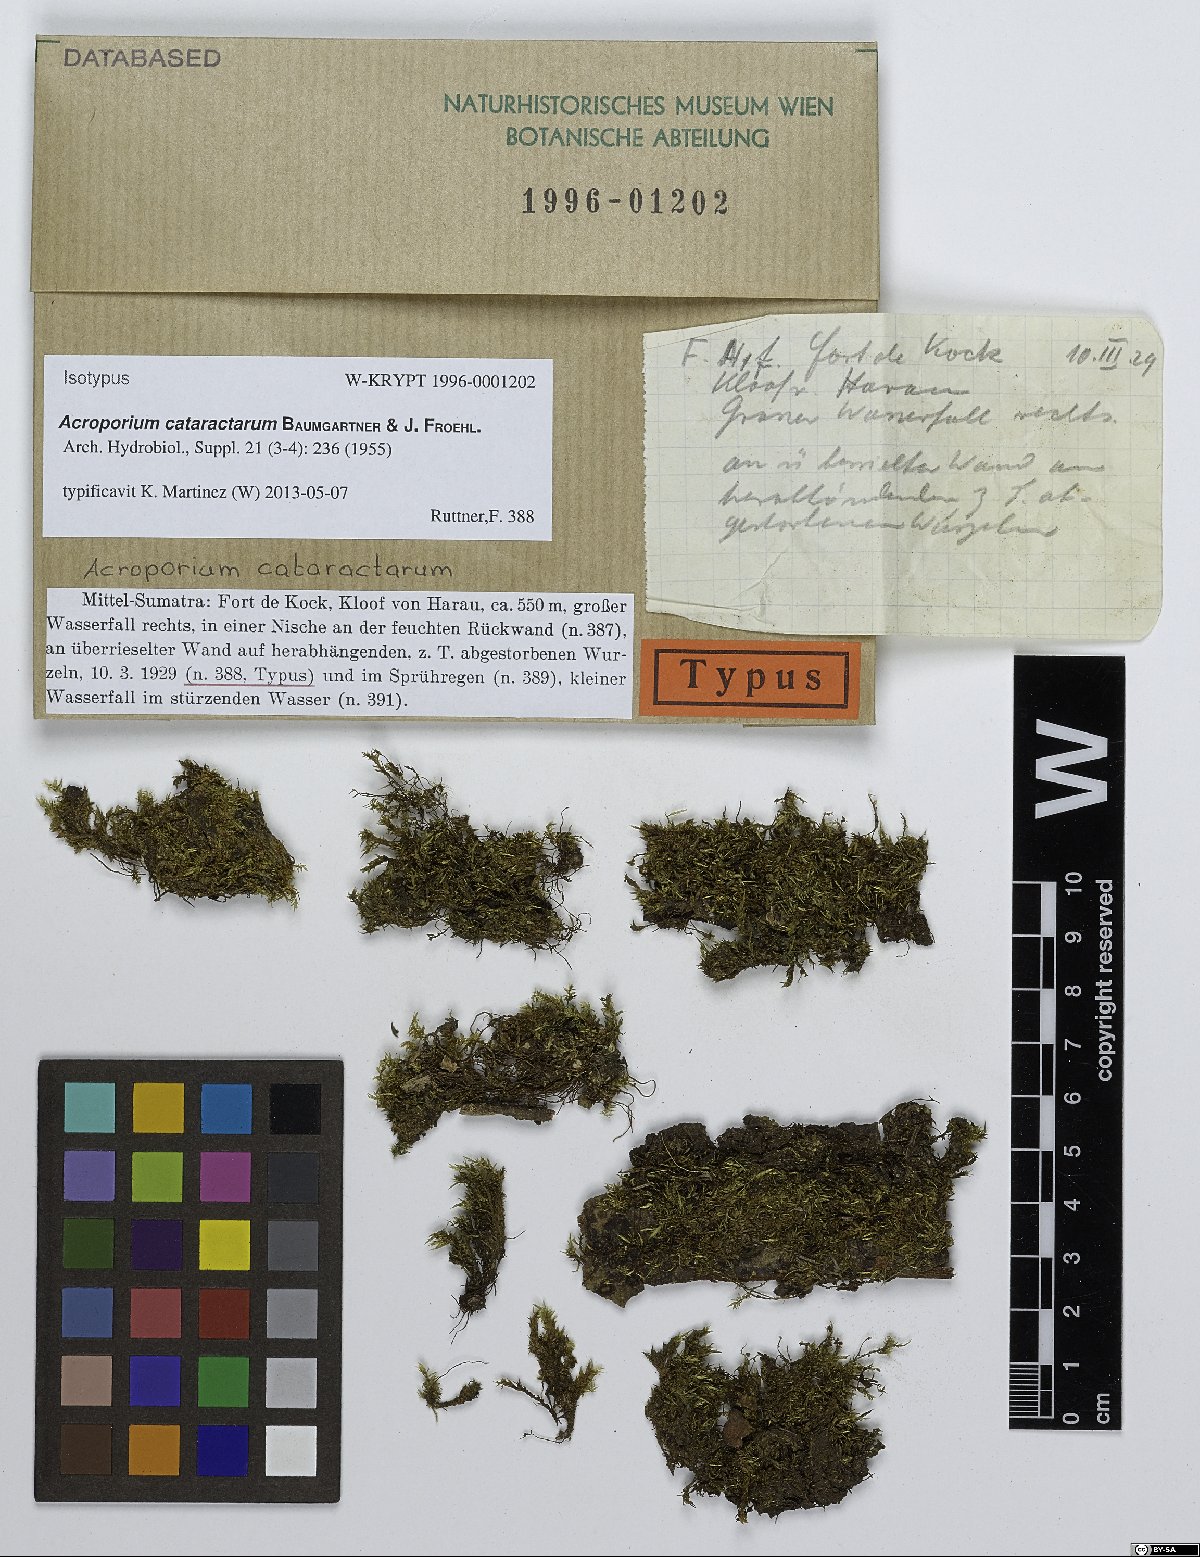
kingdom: Plantae
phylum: Bryophyta
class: Bryopsida
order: Hypnales
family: Sematophyllaceae
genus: Acroporium
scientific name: Acroporium cataractarum
